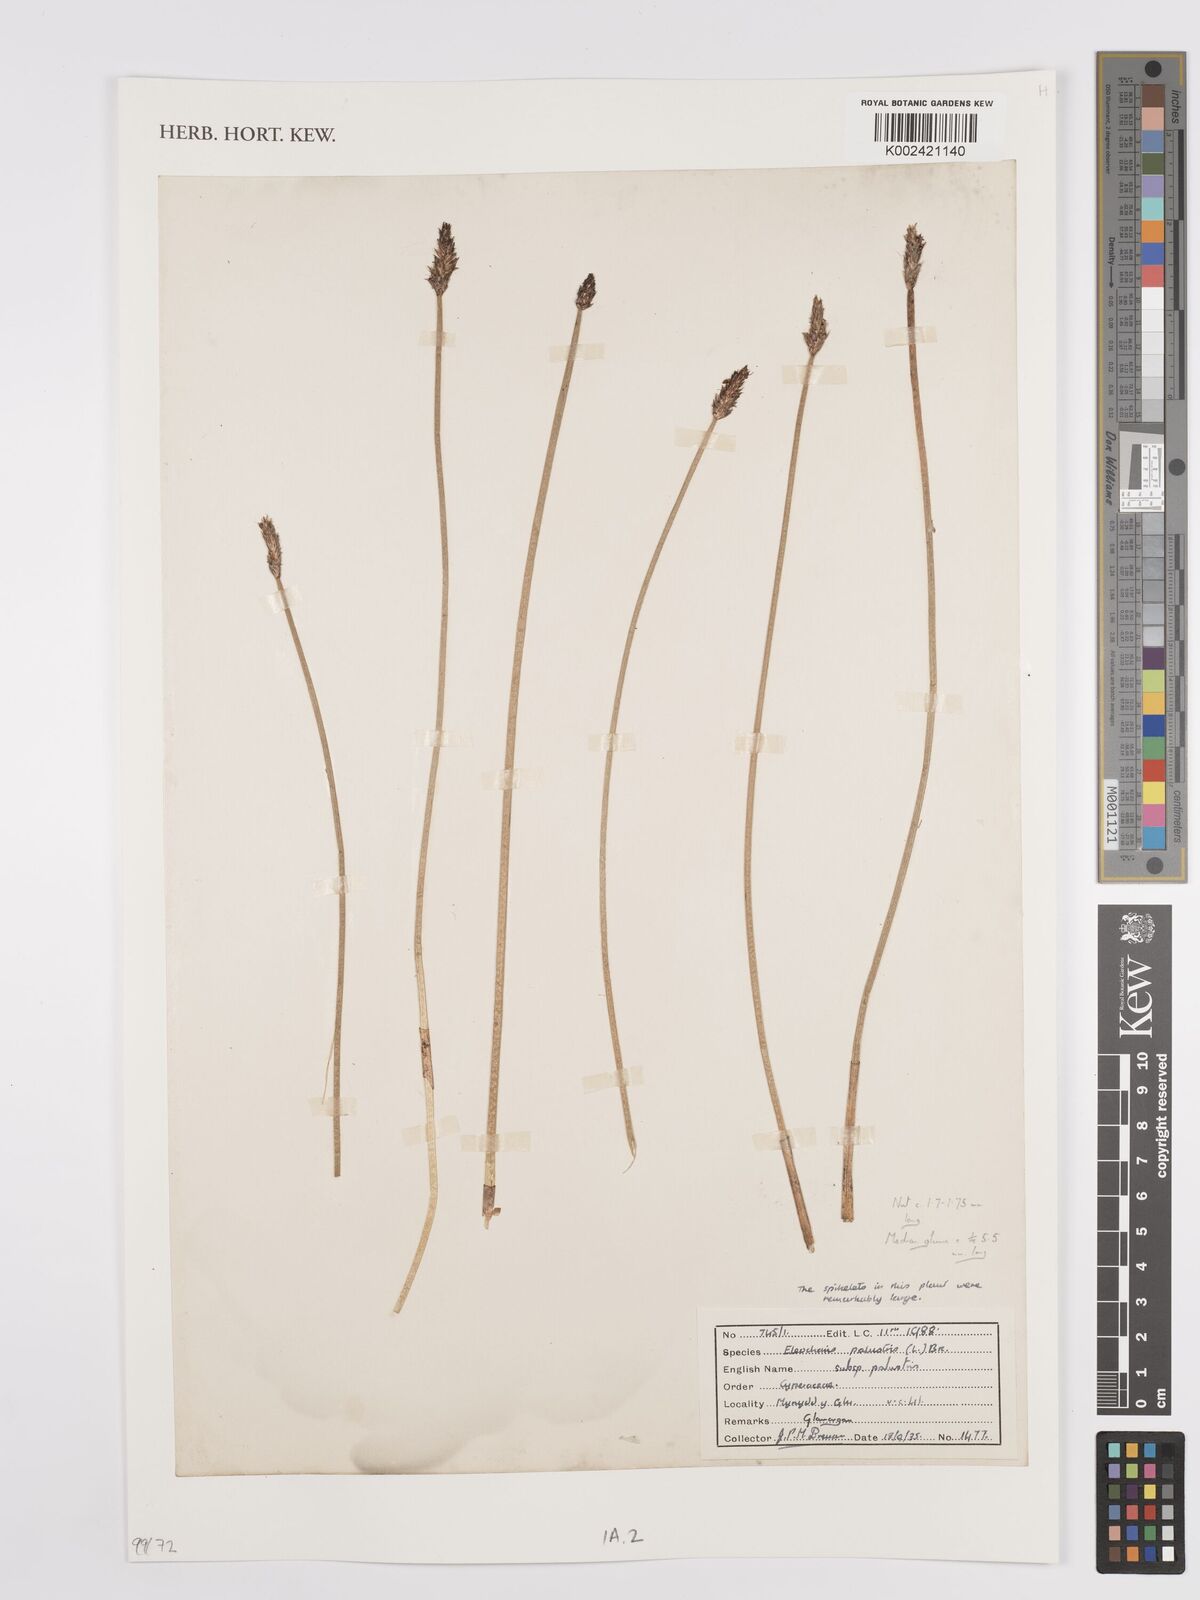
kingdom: Plantae
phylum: Tracheophyta
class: Liliopsida
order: Poales
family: Cyperaceae
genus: Eleocharis
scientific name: Eleocharis palustris
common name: Common spike-rush
